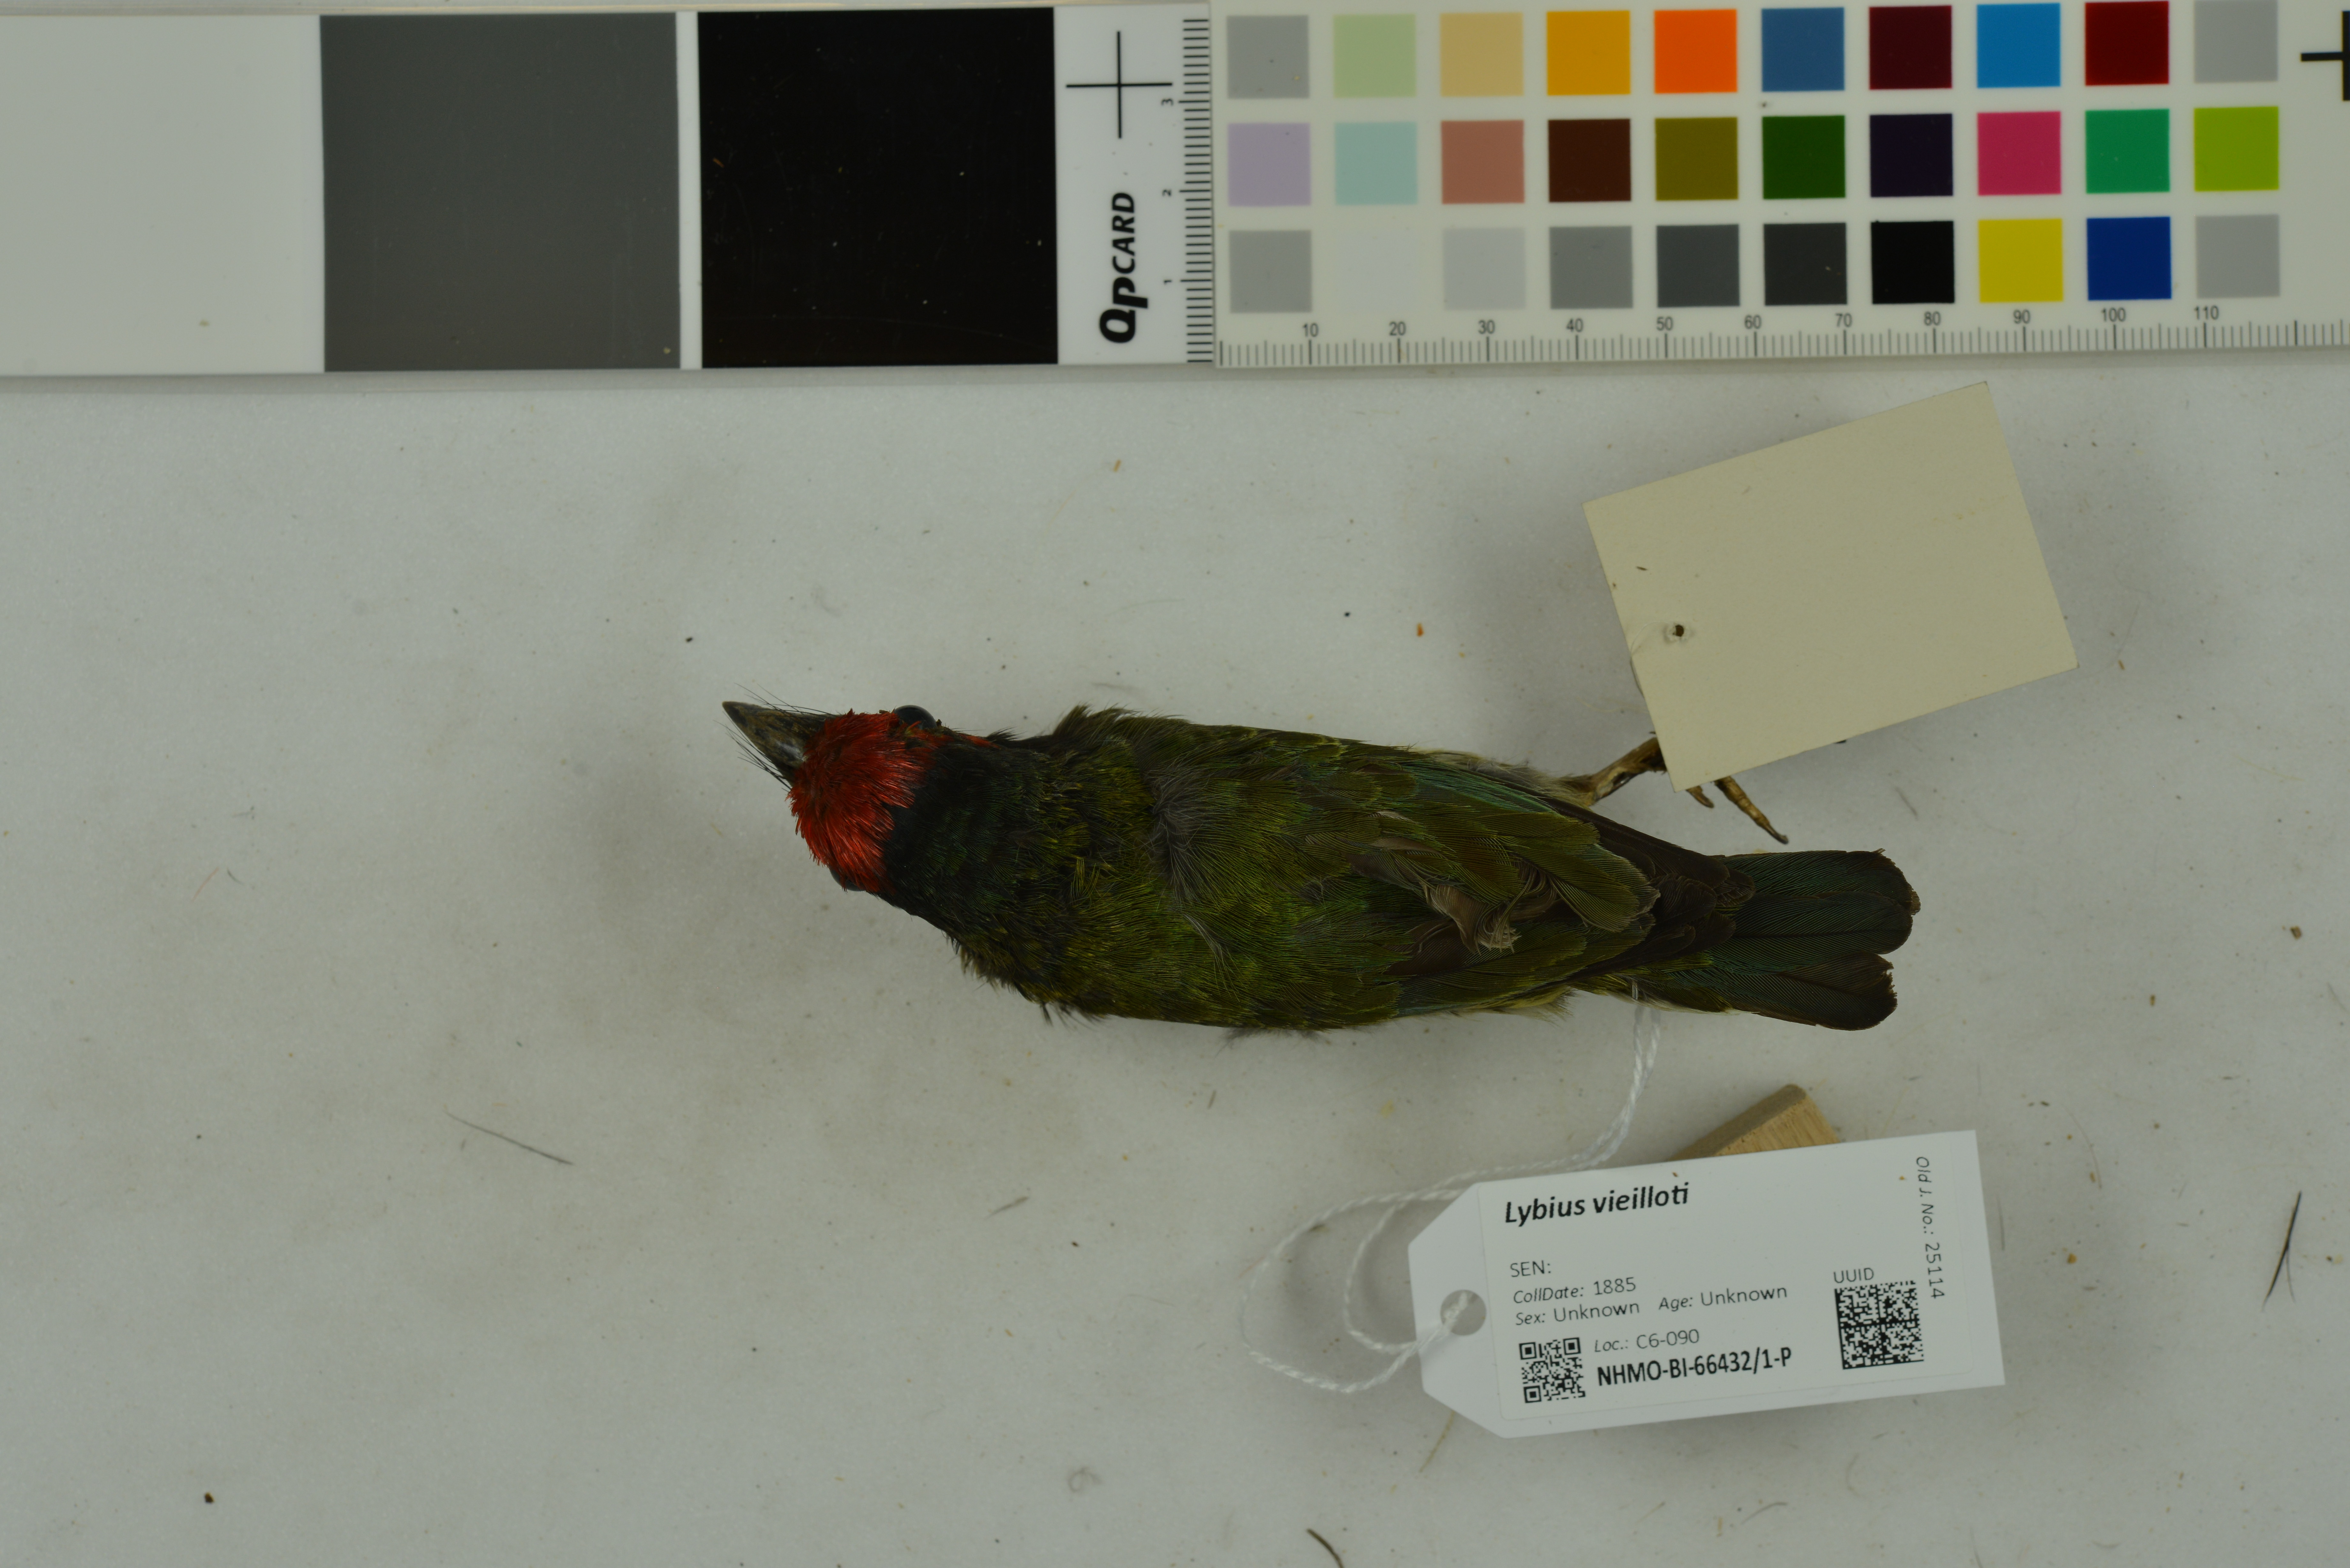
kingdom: Animalia
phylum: Chordata
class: Aves
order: Piciformes
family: Lybiidae
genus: Lybius
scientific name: Lybius vieilloti
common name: Vieillot's barbet
